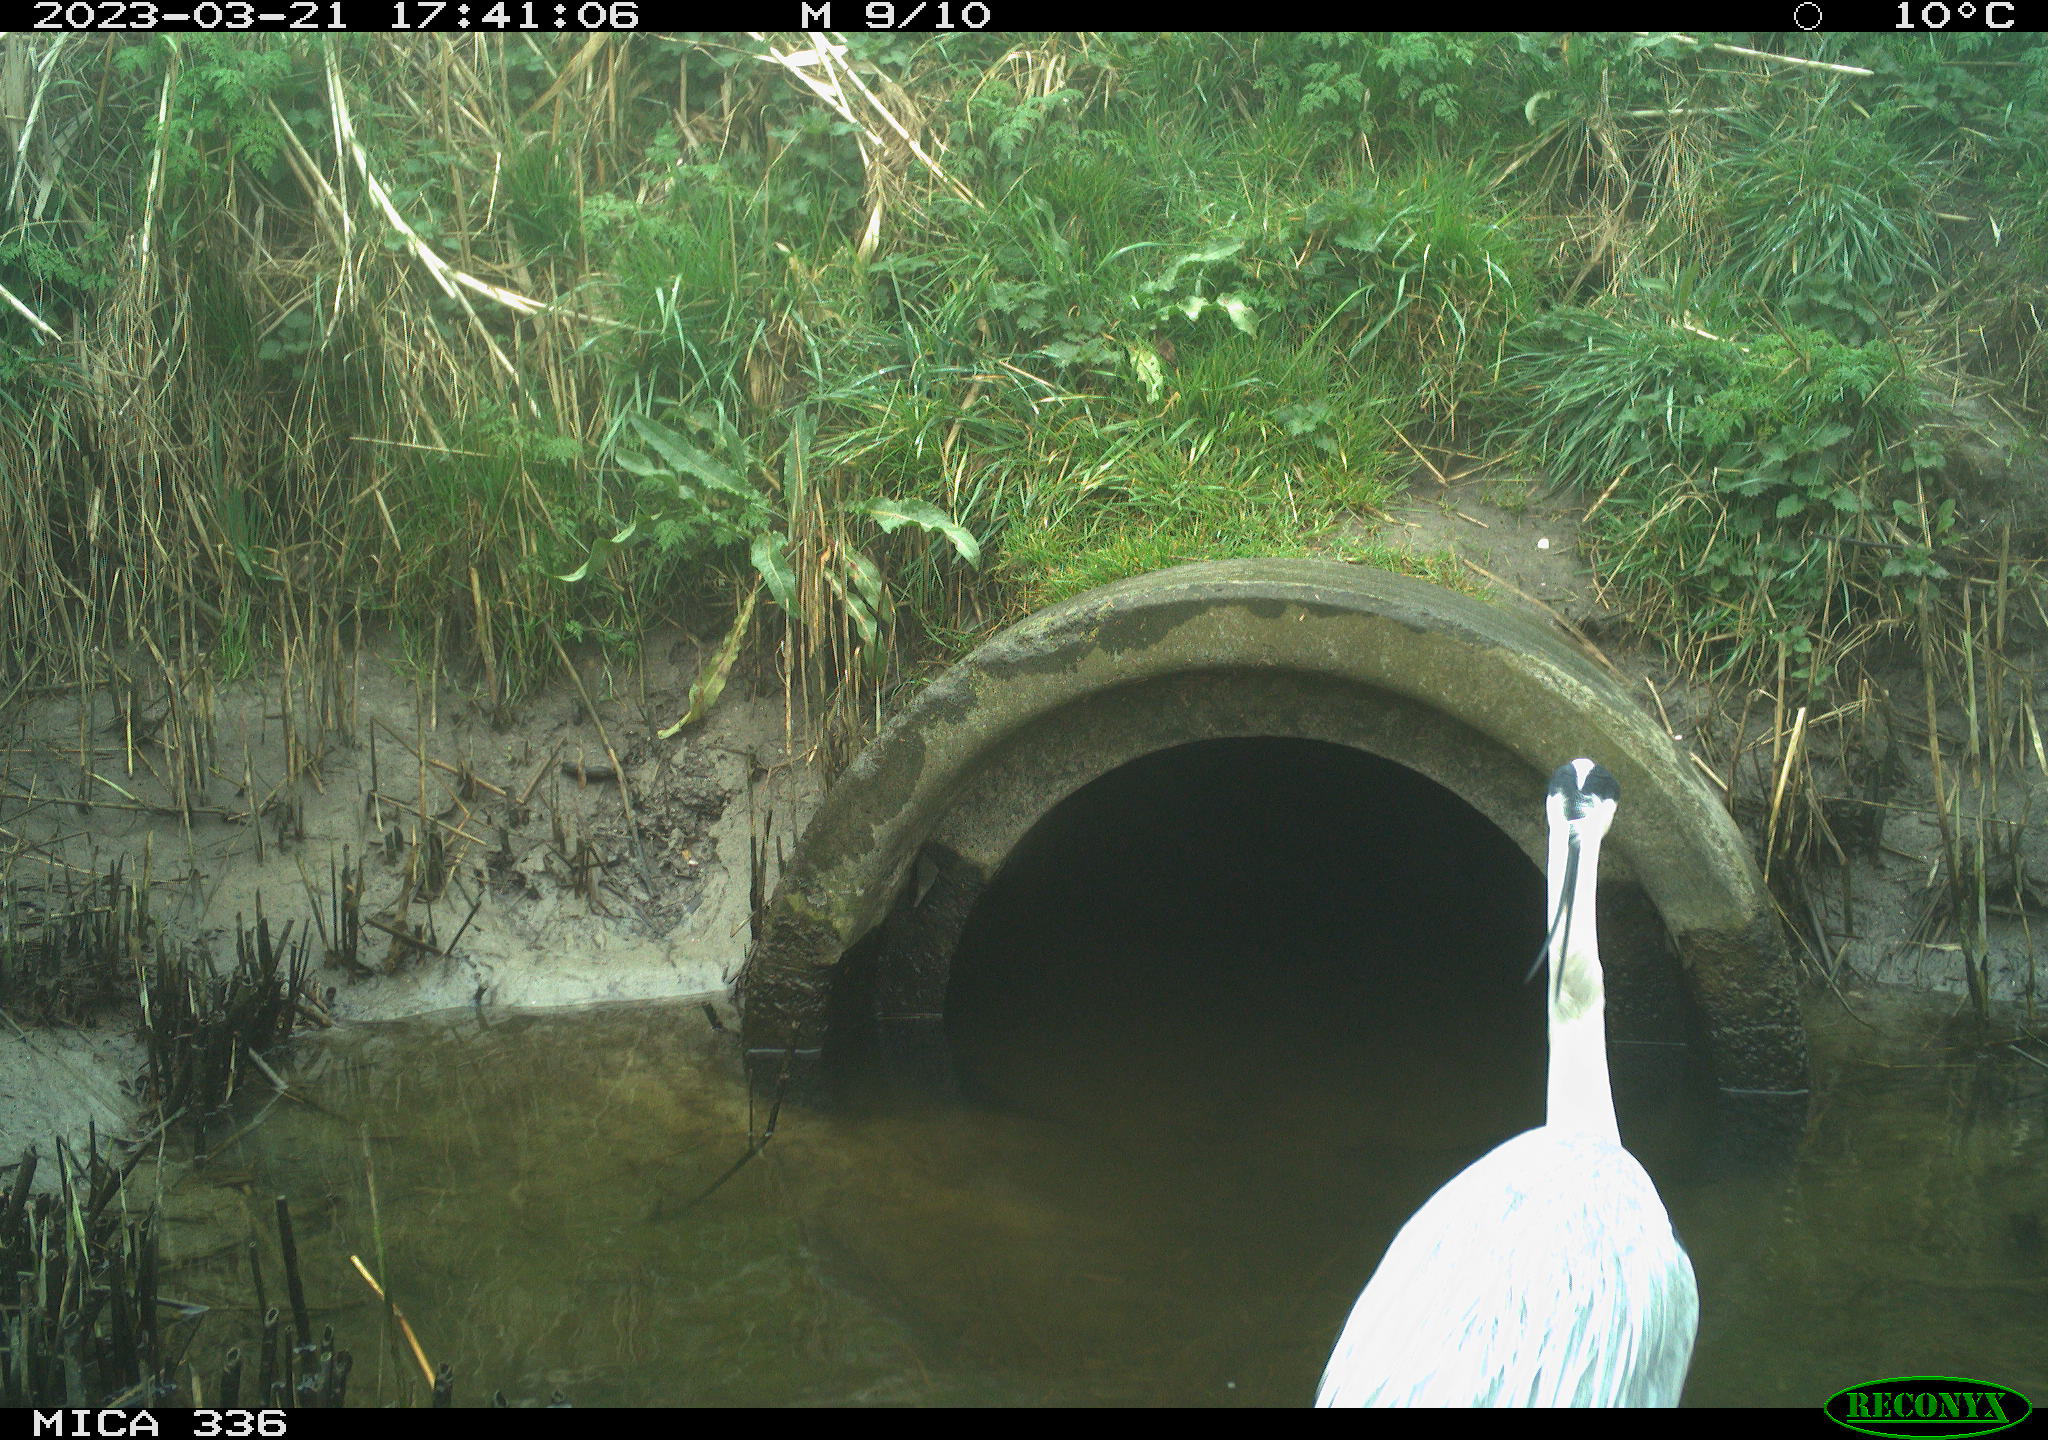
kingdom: Animalia
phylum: Chordata
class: Aves
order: Pelecaniformes
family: Ardeidae
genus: Ardea
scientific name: Ardea
